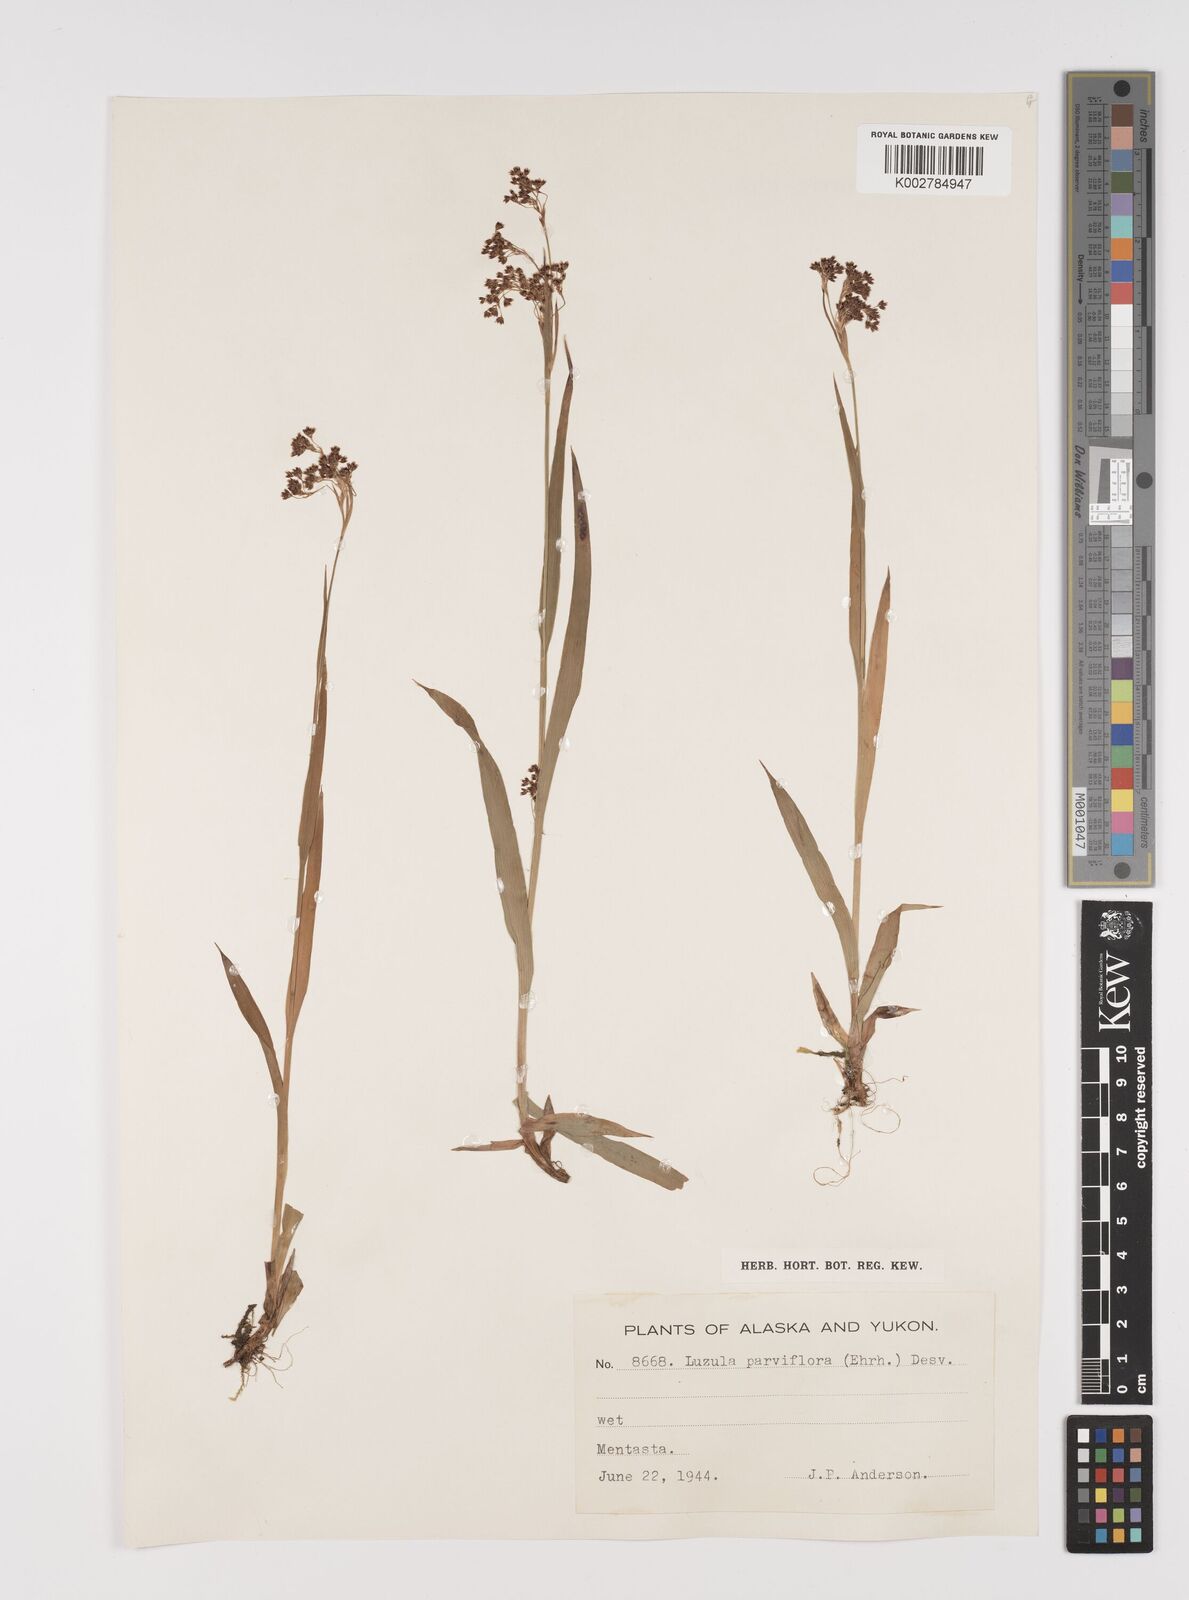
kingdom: Plantae
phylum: Tracheophyta
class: Liliopsida
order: Poales
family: Juncaceae
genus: Luzula
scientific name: Luzula parviflora
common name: Millet woodrush
